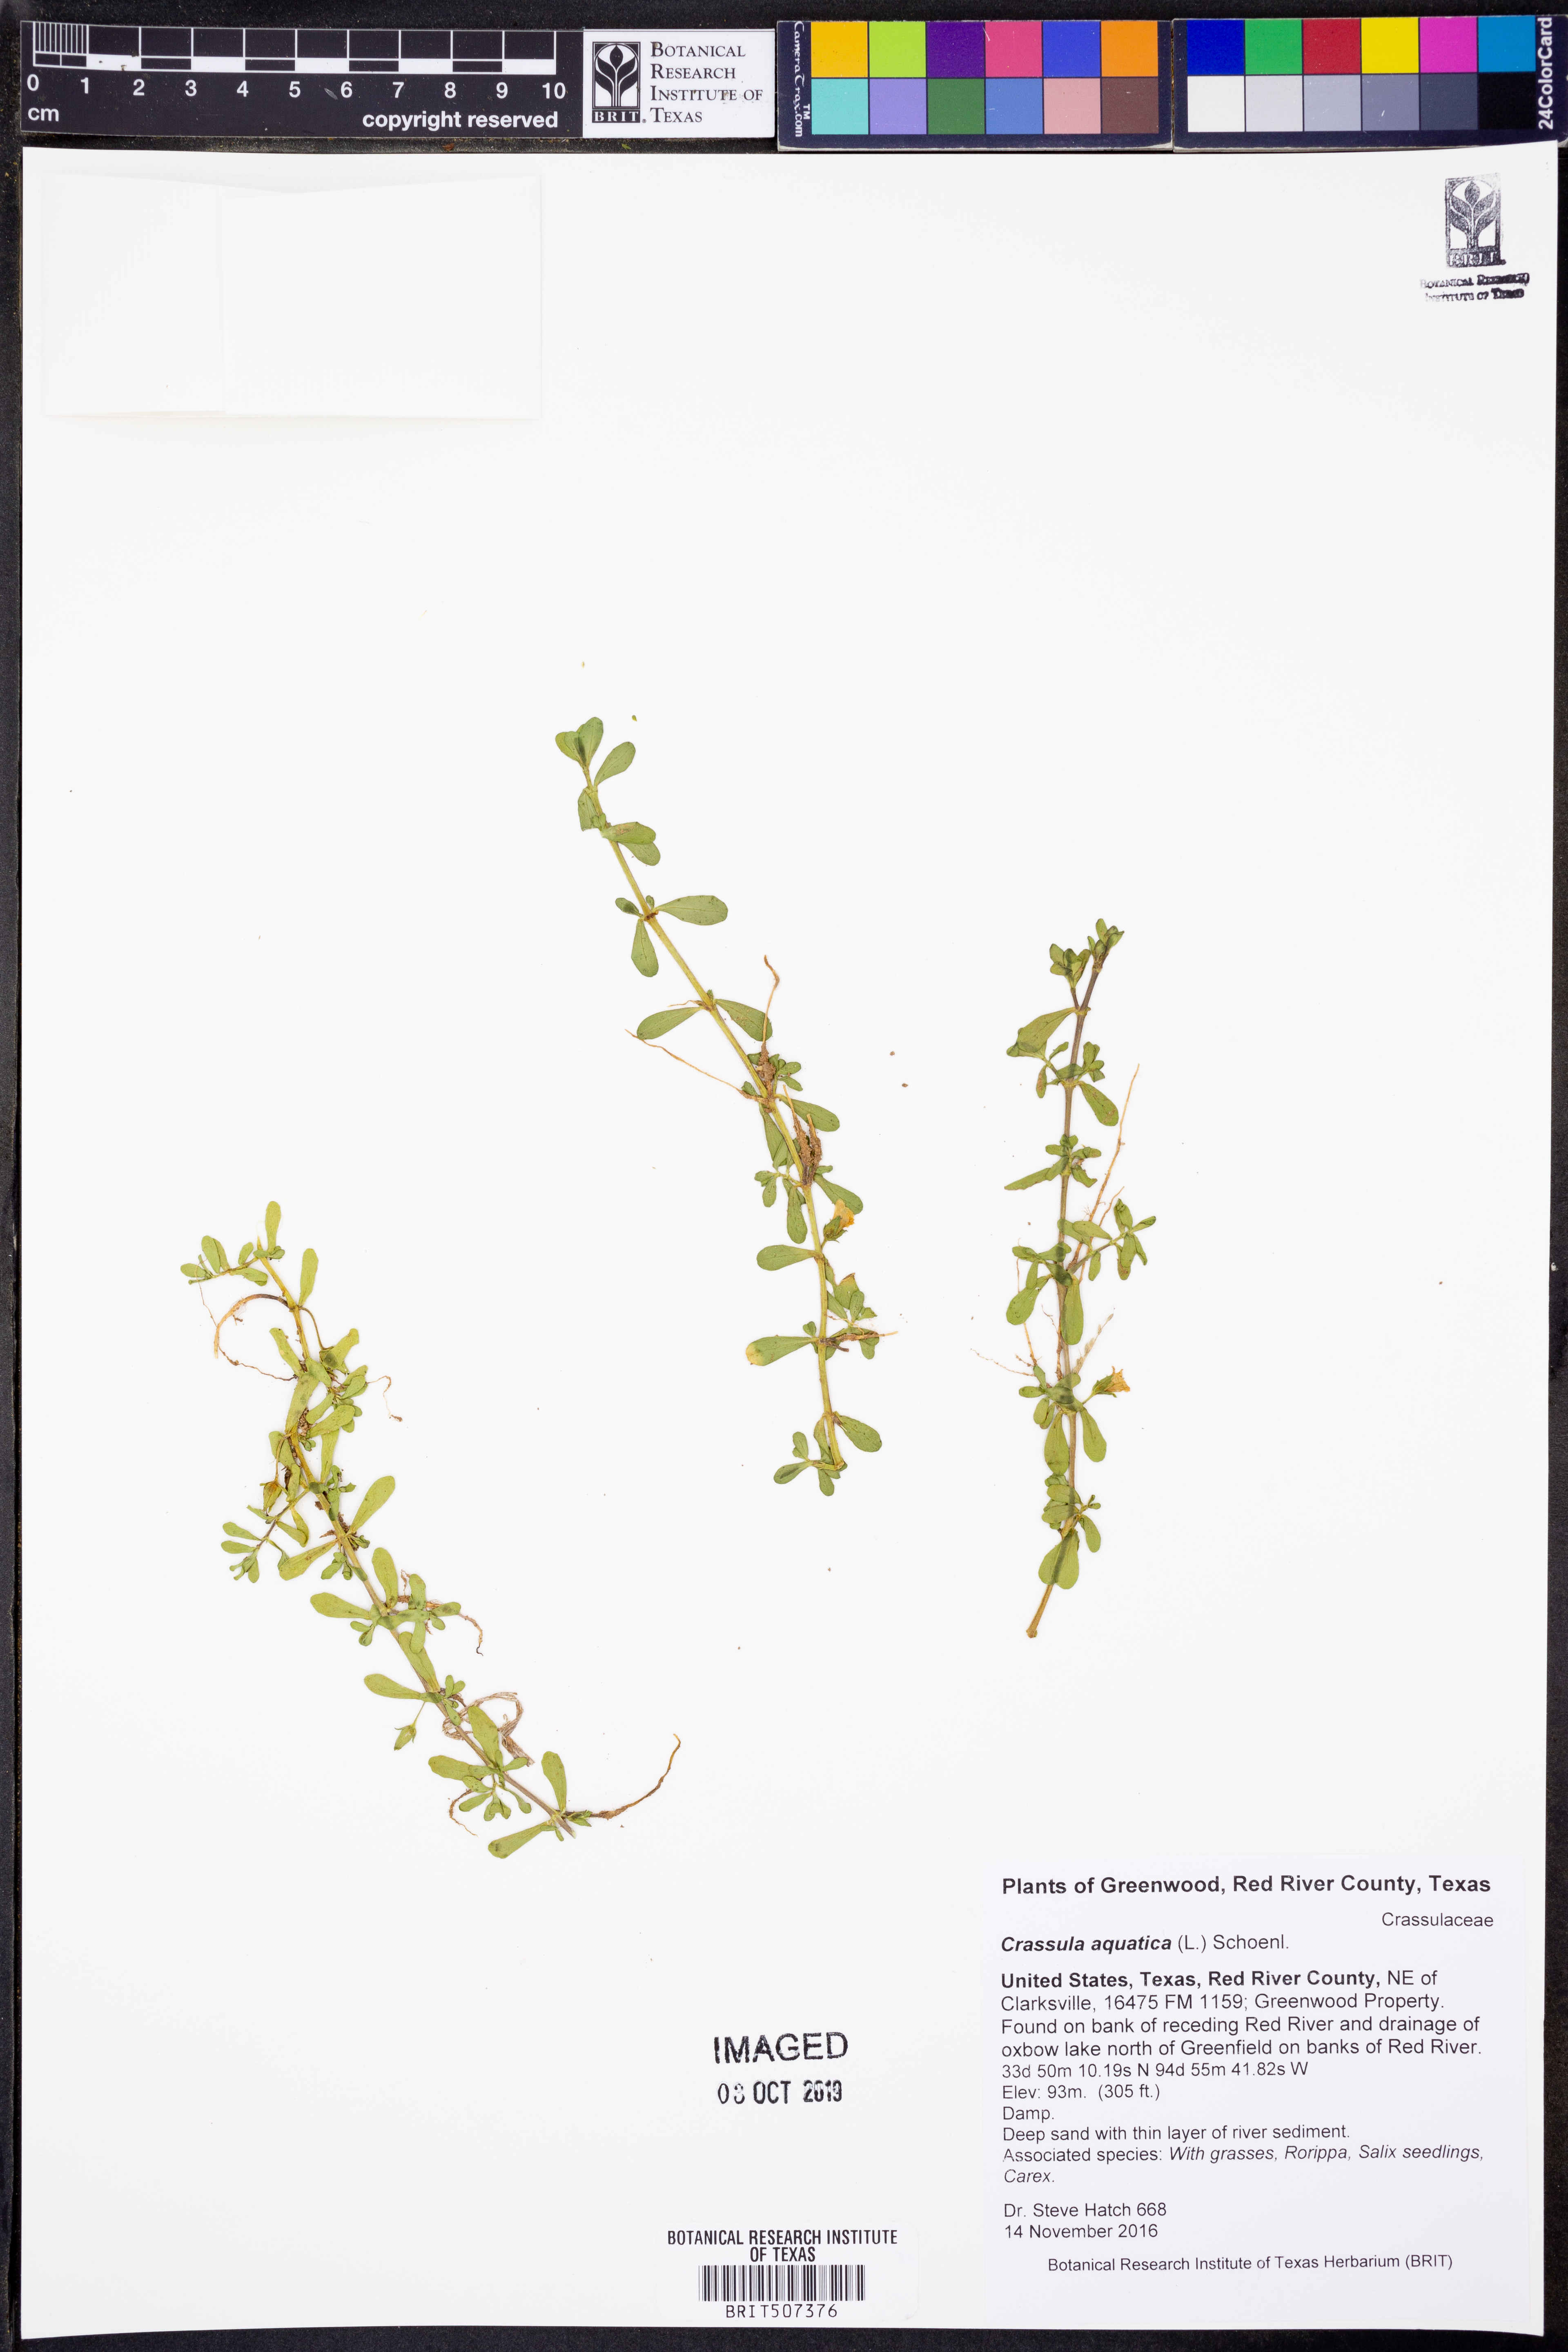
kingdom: Plantae
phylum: Tracheophyta
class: Magnoliopsida
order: Saxifragales
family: Crassulaceae
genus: Crassula
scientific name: Crassula aquatica
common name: Pigmyweed
